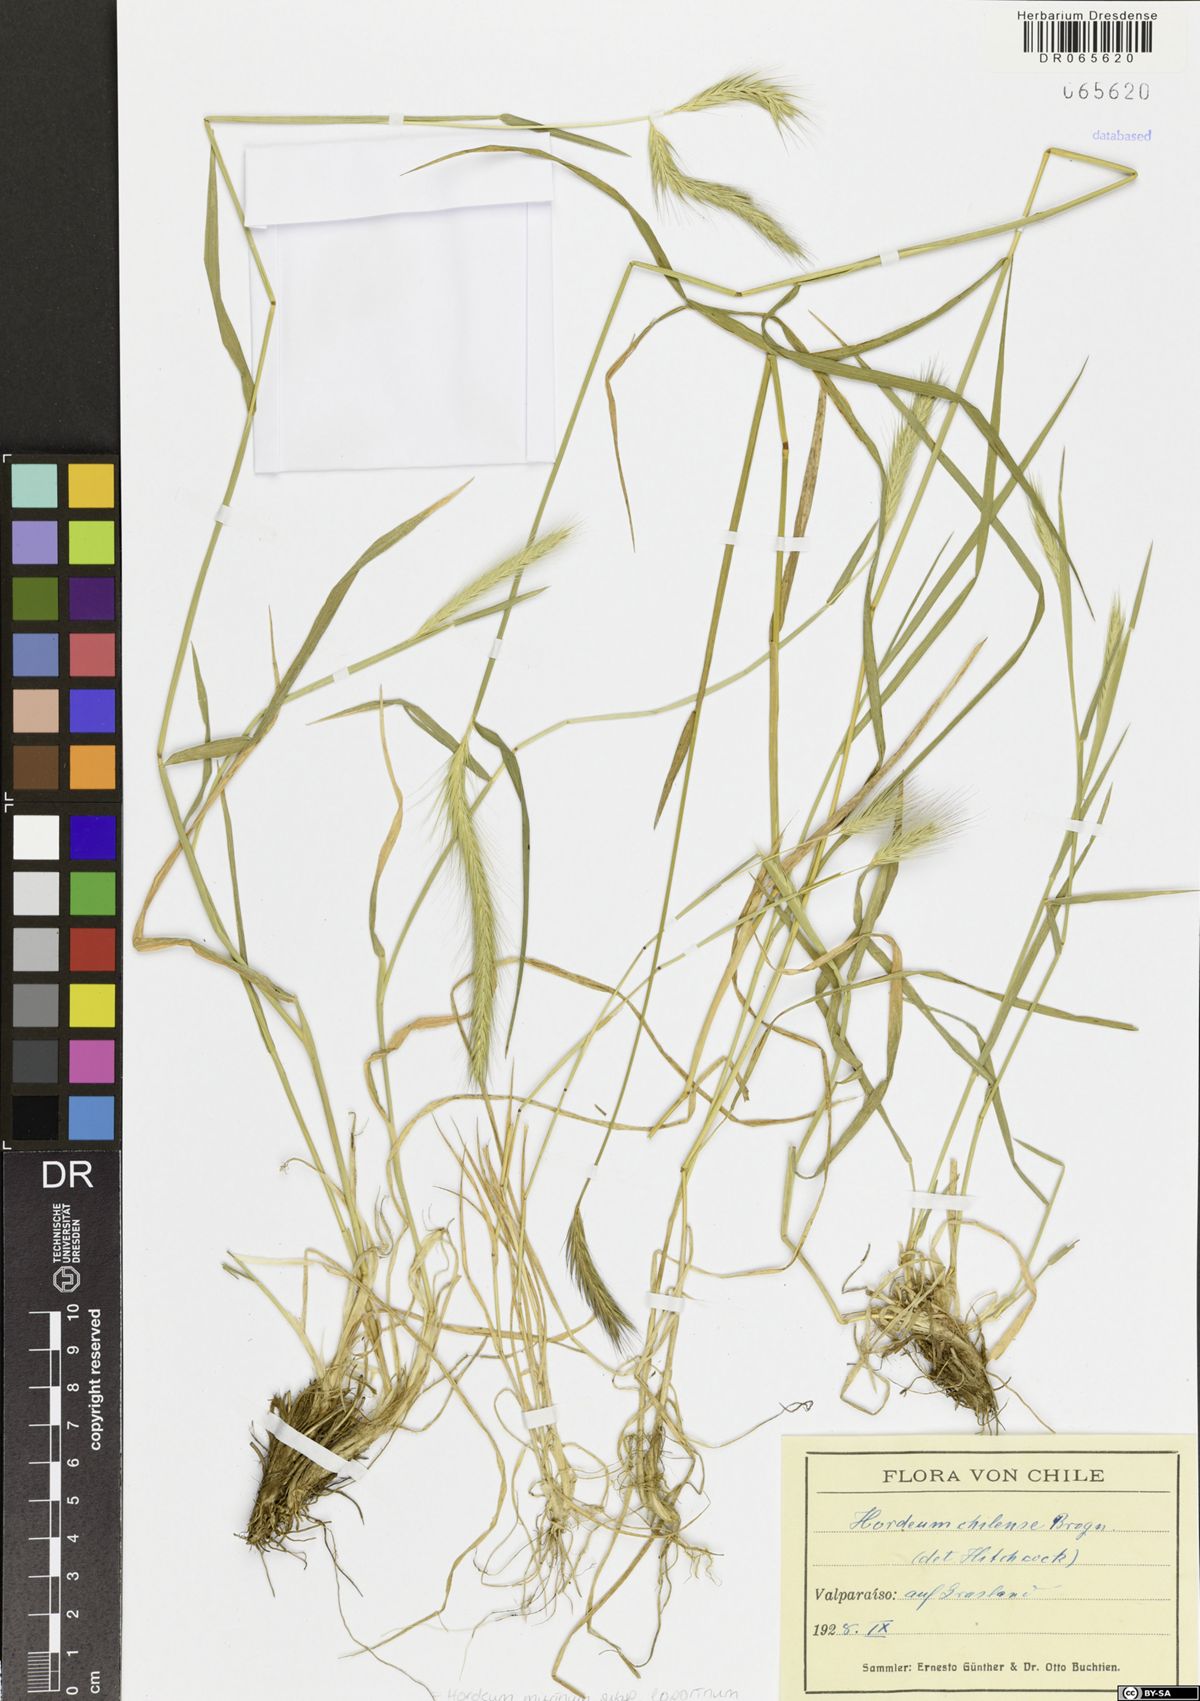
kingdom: Plantae
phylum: Tracheophyta
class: Liliopsida
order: Poales
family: Poaceae
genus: Hordeum
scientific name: Hordeum murinum
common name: Wall barley
